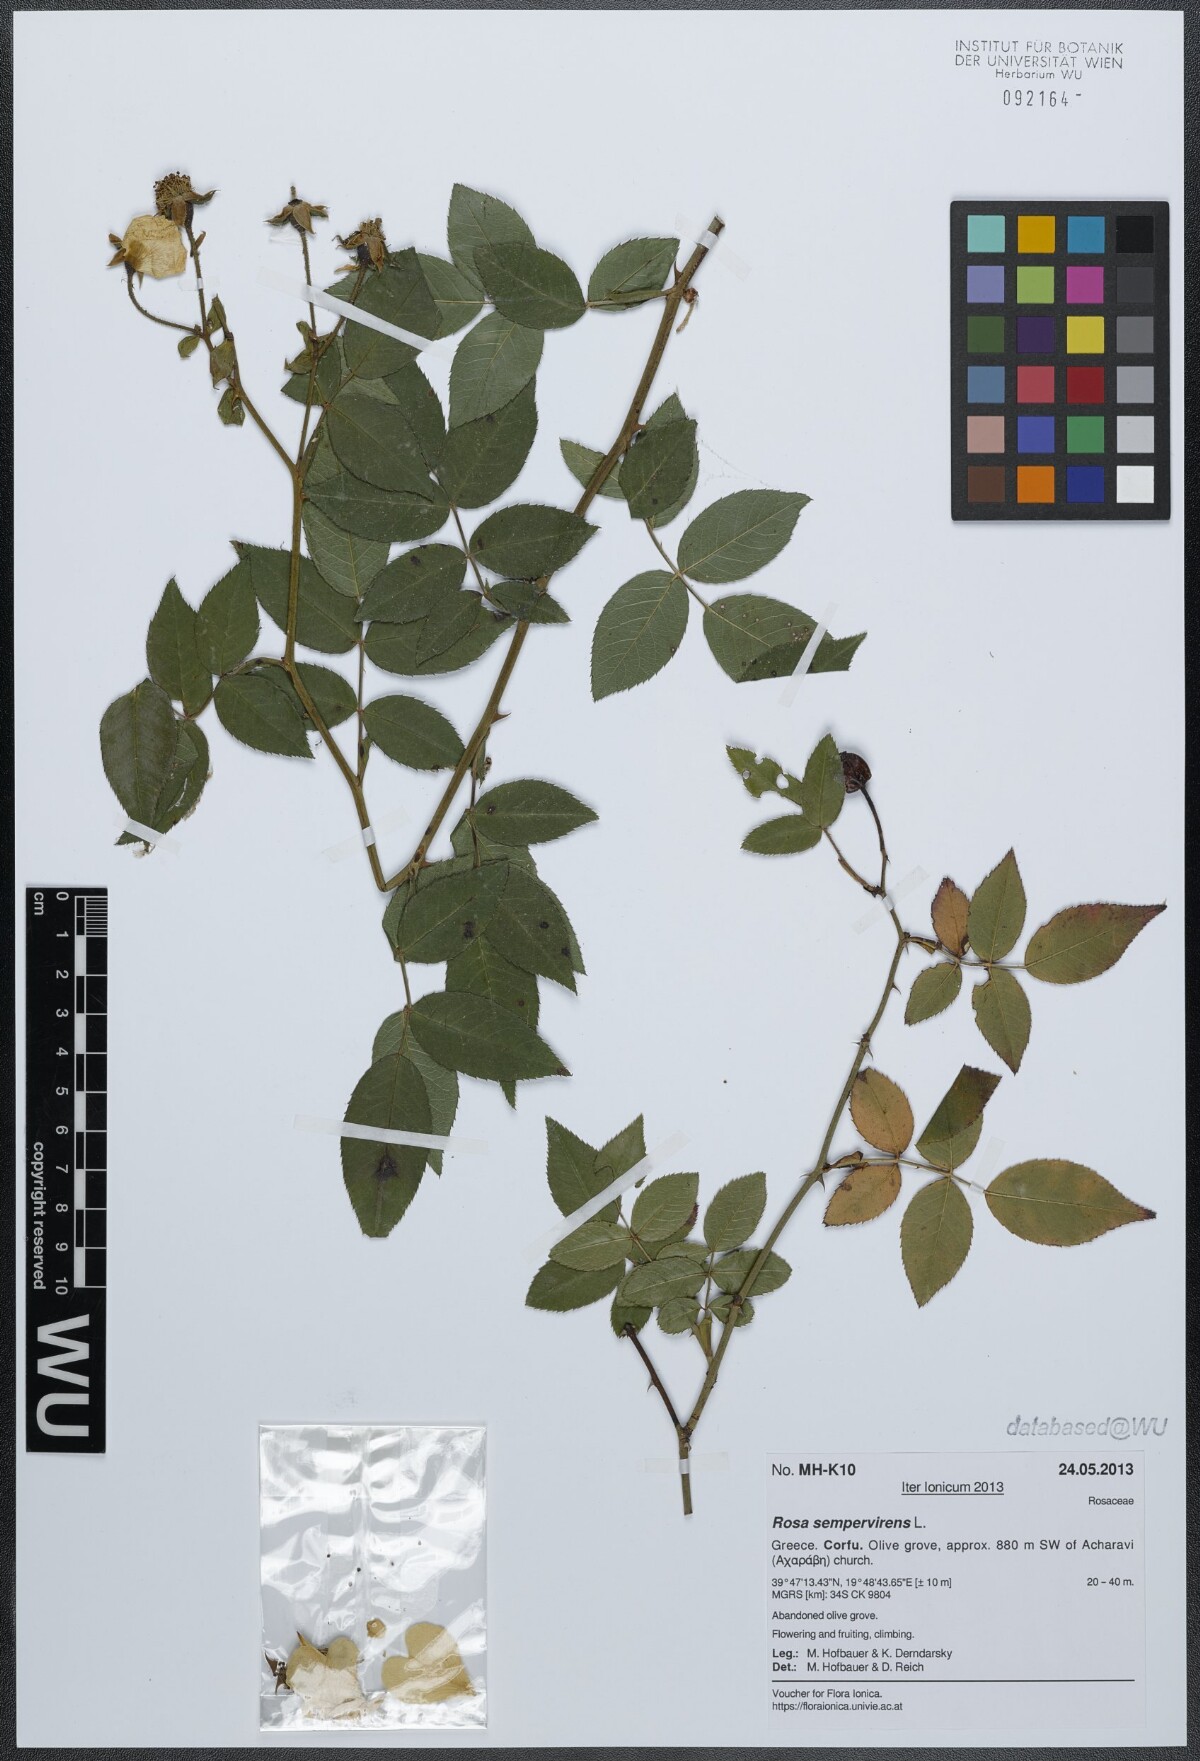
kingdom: Plantae
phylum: Tracheophyta
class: Magnoliopsida
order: Rosales
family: Rosaceae
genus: Rosa
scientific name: Rosa sempervirens
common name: Evergreen rose
